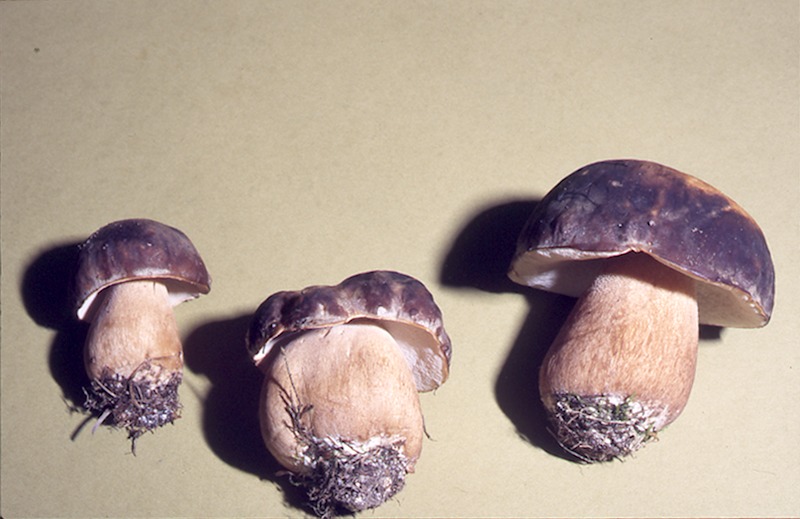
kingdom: Fungi
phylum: Basidiomycota
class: Agaricomycetes
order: Boletales
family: Boletaceae
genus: Boletus
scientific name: Boletus aereus
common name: Bronze bolete
